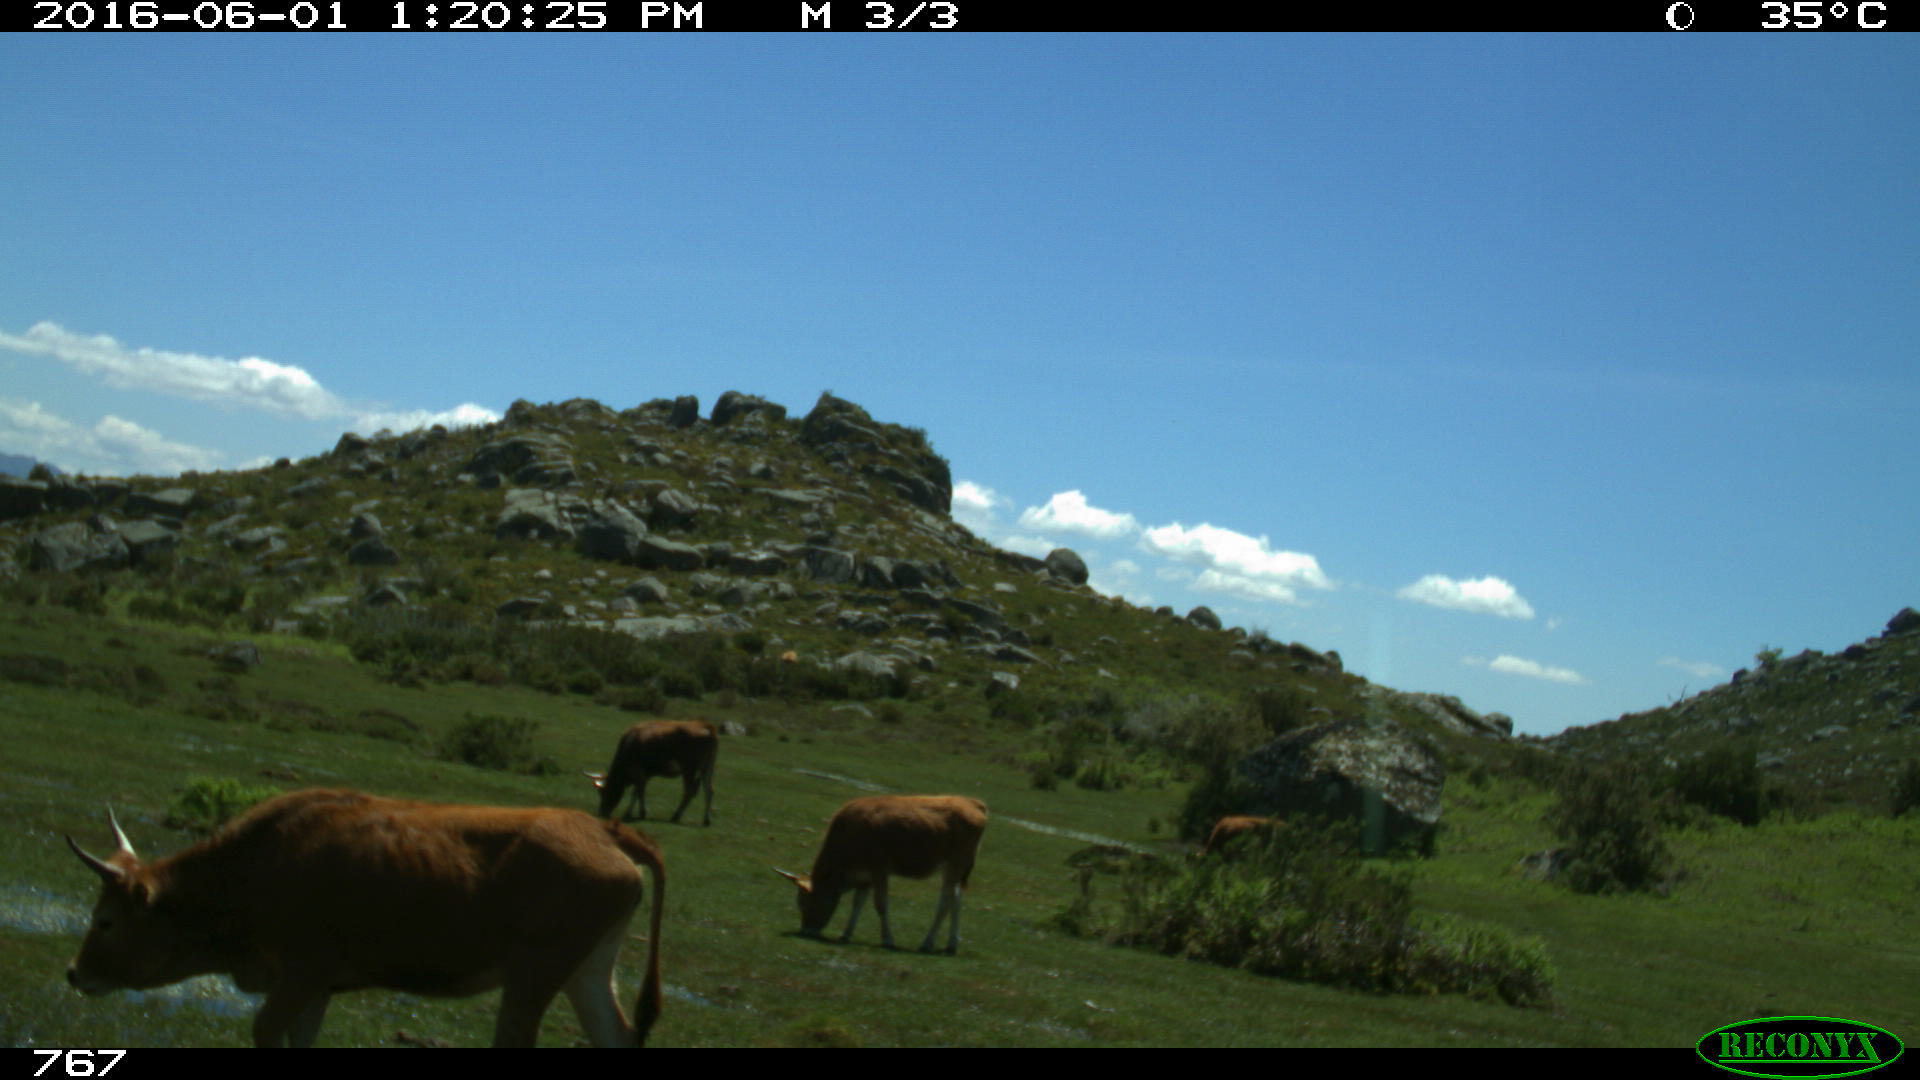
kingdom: Animalia
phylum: Chordata
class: Mammalia
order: Artiodactyla
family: Bovidae
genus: Bos
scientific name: Bos taurus
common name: Domesticated cattle
